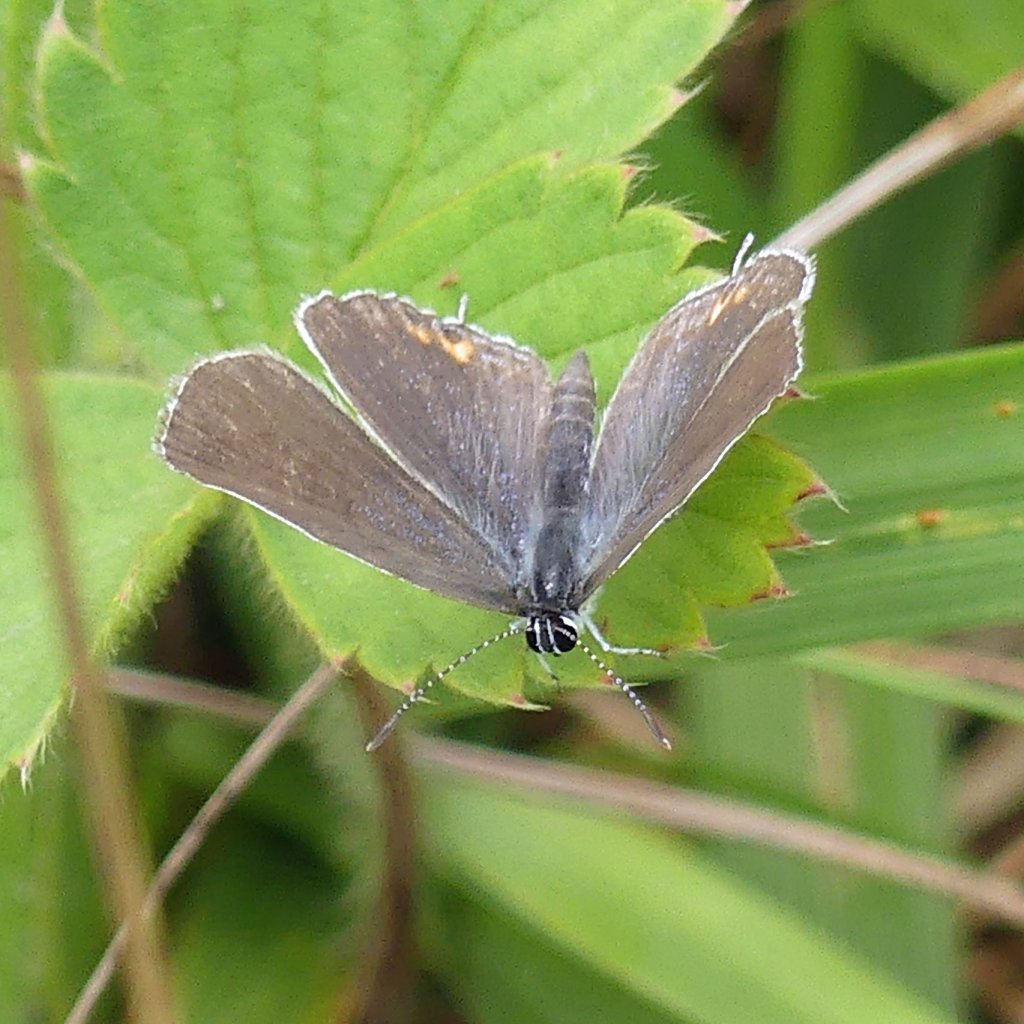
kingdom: Animalia
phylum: Arthropoda
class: Insecta
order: Lepidoptera
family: Lycaenidae
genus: Elkalyce
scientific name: Elkalyce comyntas
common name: Eastern Tailed-Blue
